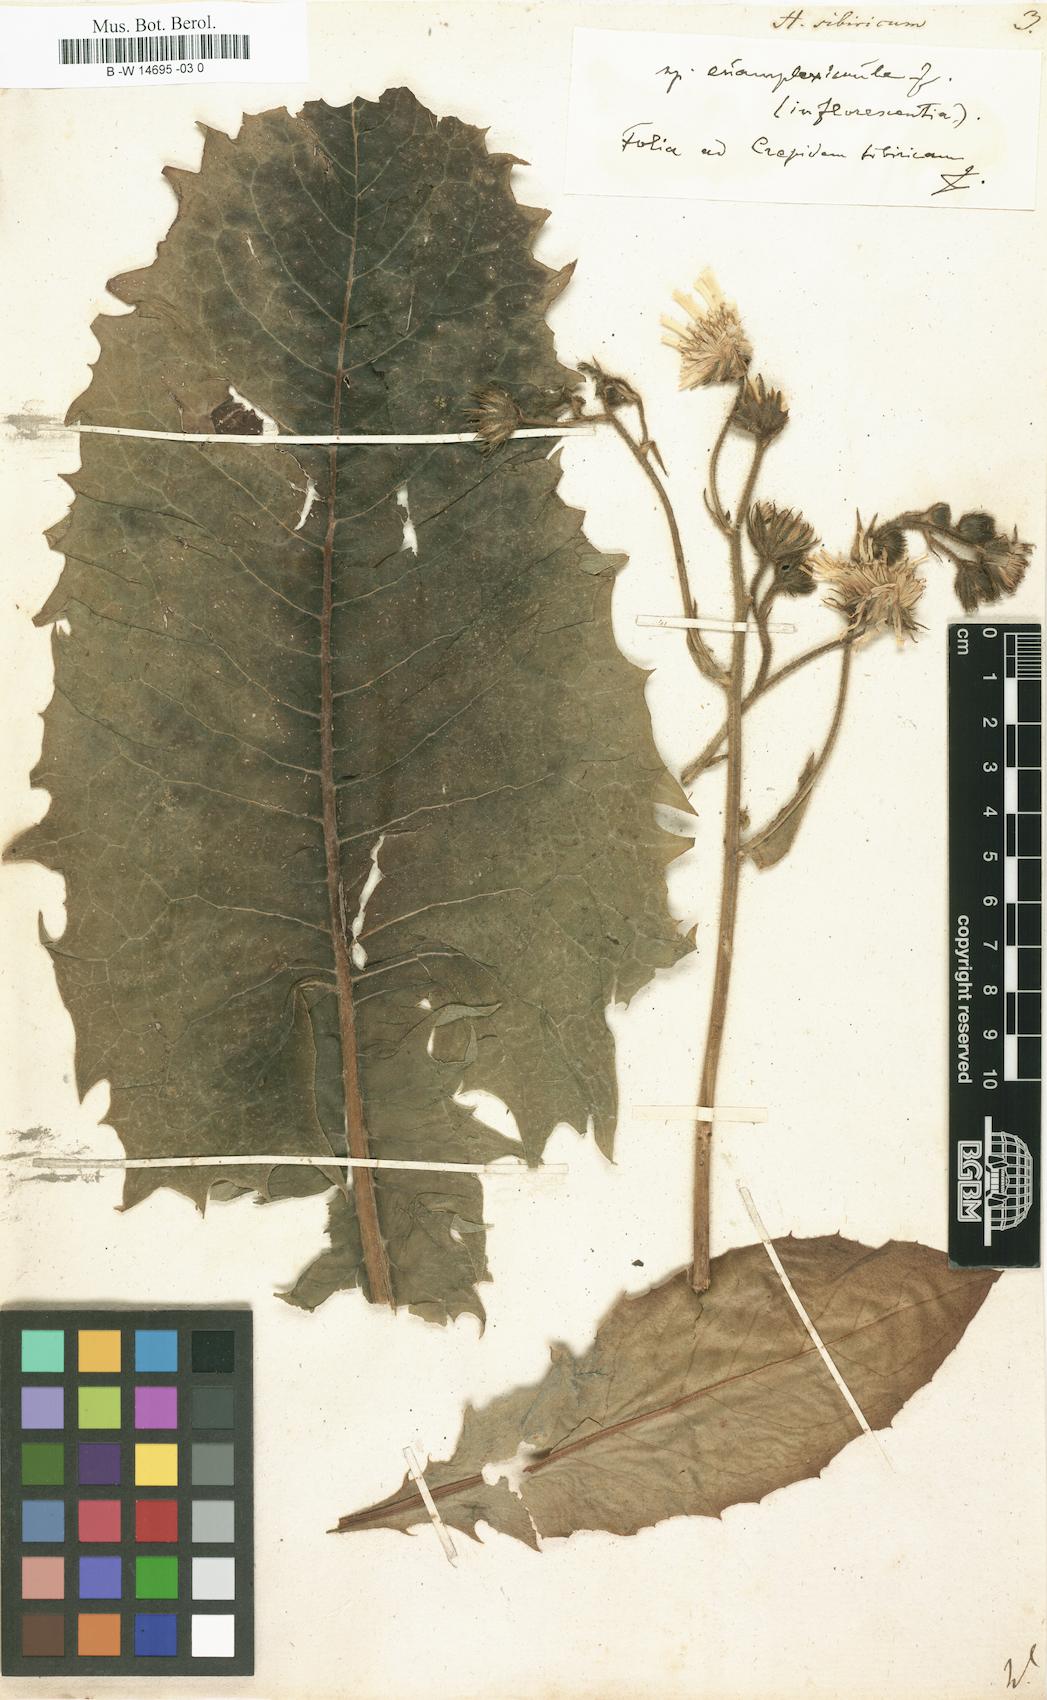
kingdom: Plantae
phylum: Tracheophyta
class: Magnoliopsida
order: Asterales
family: Asteraceae
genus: Crepis
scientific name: Crepis sibirica
